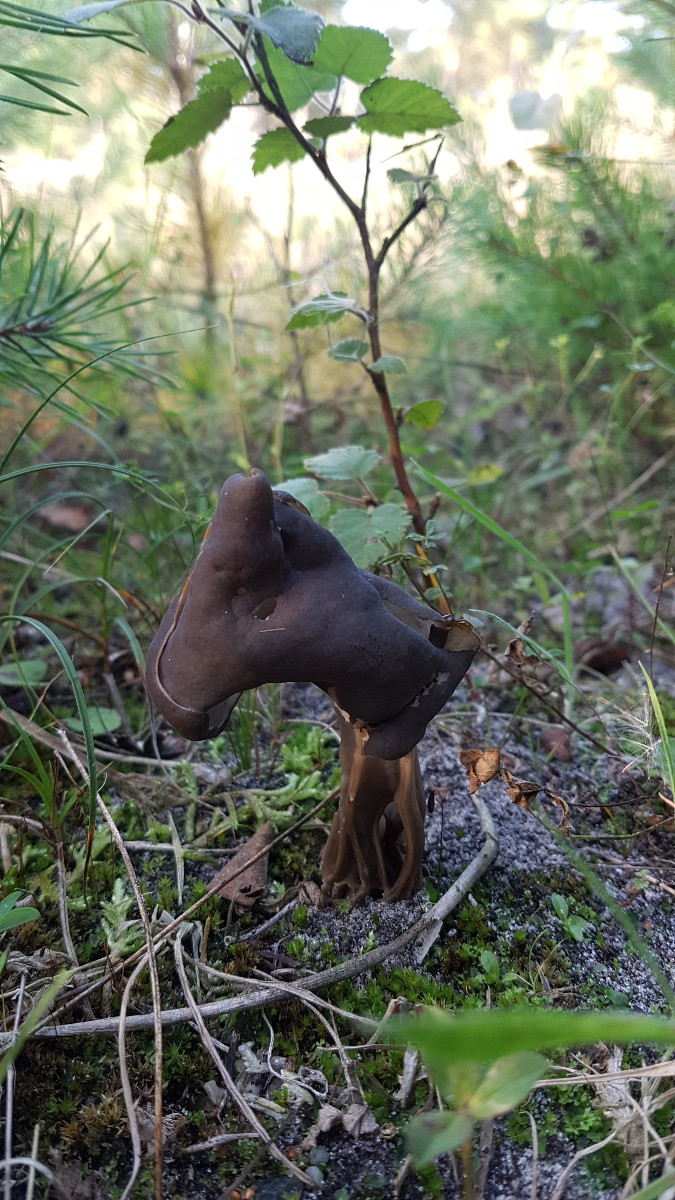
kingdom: Fungi
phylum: Ascomycota
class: Pezizomycetes
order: Pezizales
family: Helvellaceae
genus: Helvella
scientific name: Helvella lacunosa
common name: grubet foldhat
